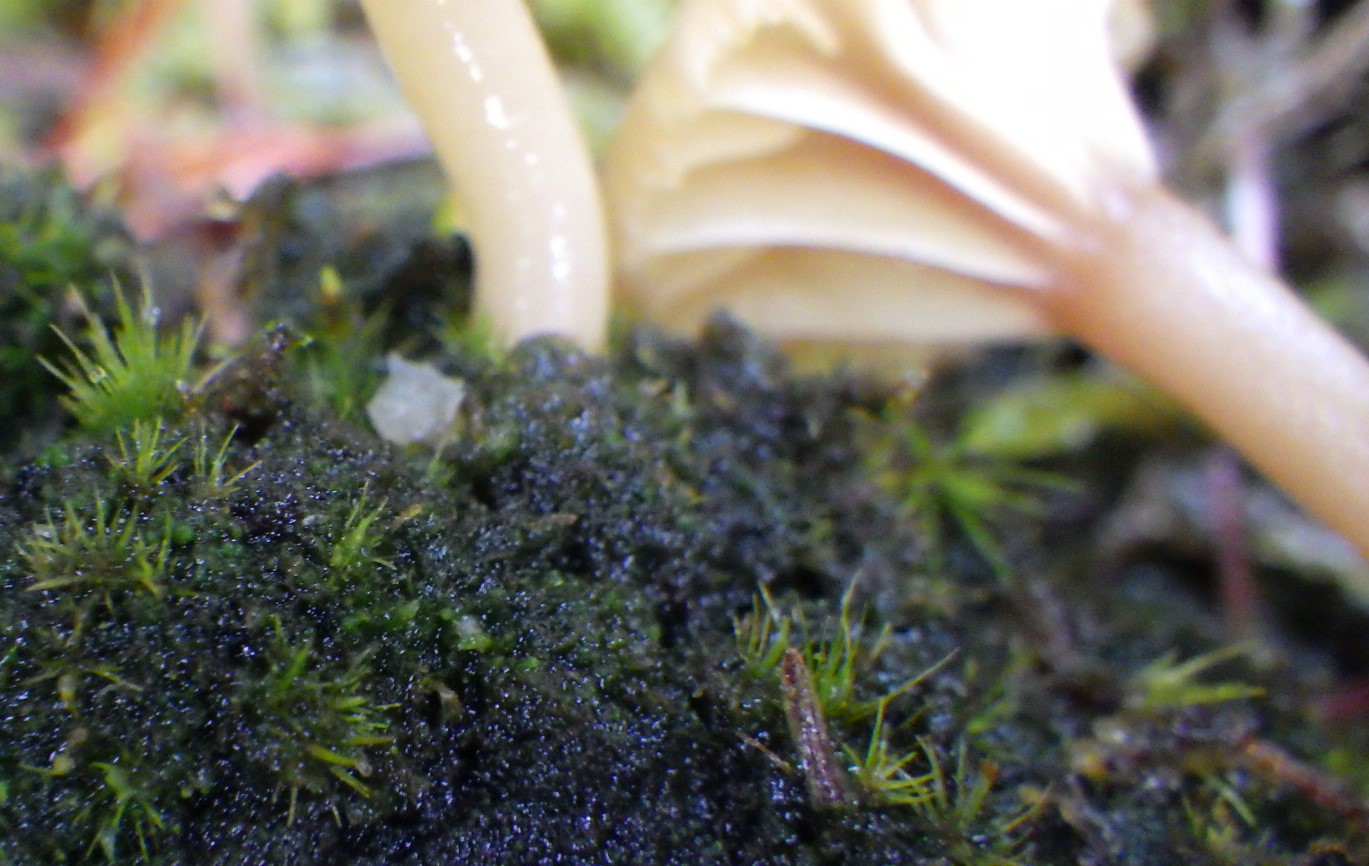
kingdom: Fungi
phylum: Basidiomycota
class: Agaricomycetes
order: Agaricales
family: Hygrophoraceae
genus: Lichenomphalia
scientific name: Lichenomphalia umbellifera
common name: tørve-lavhat
